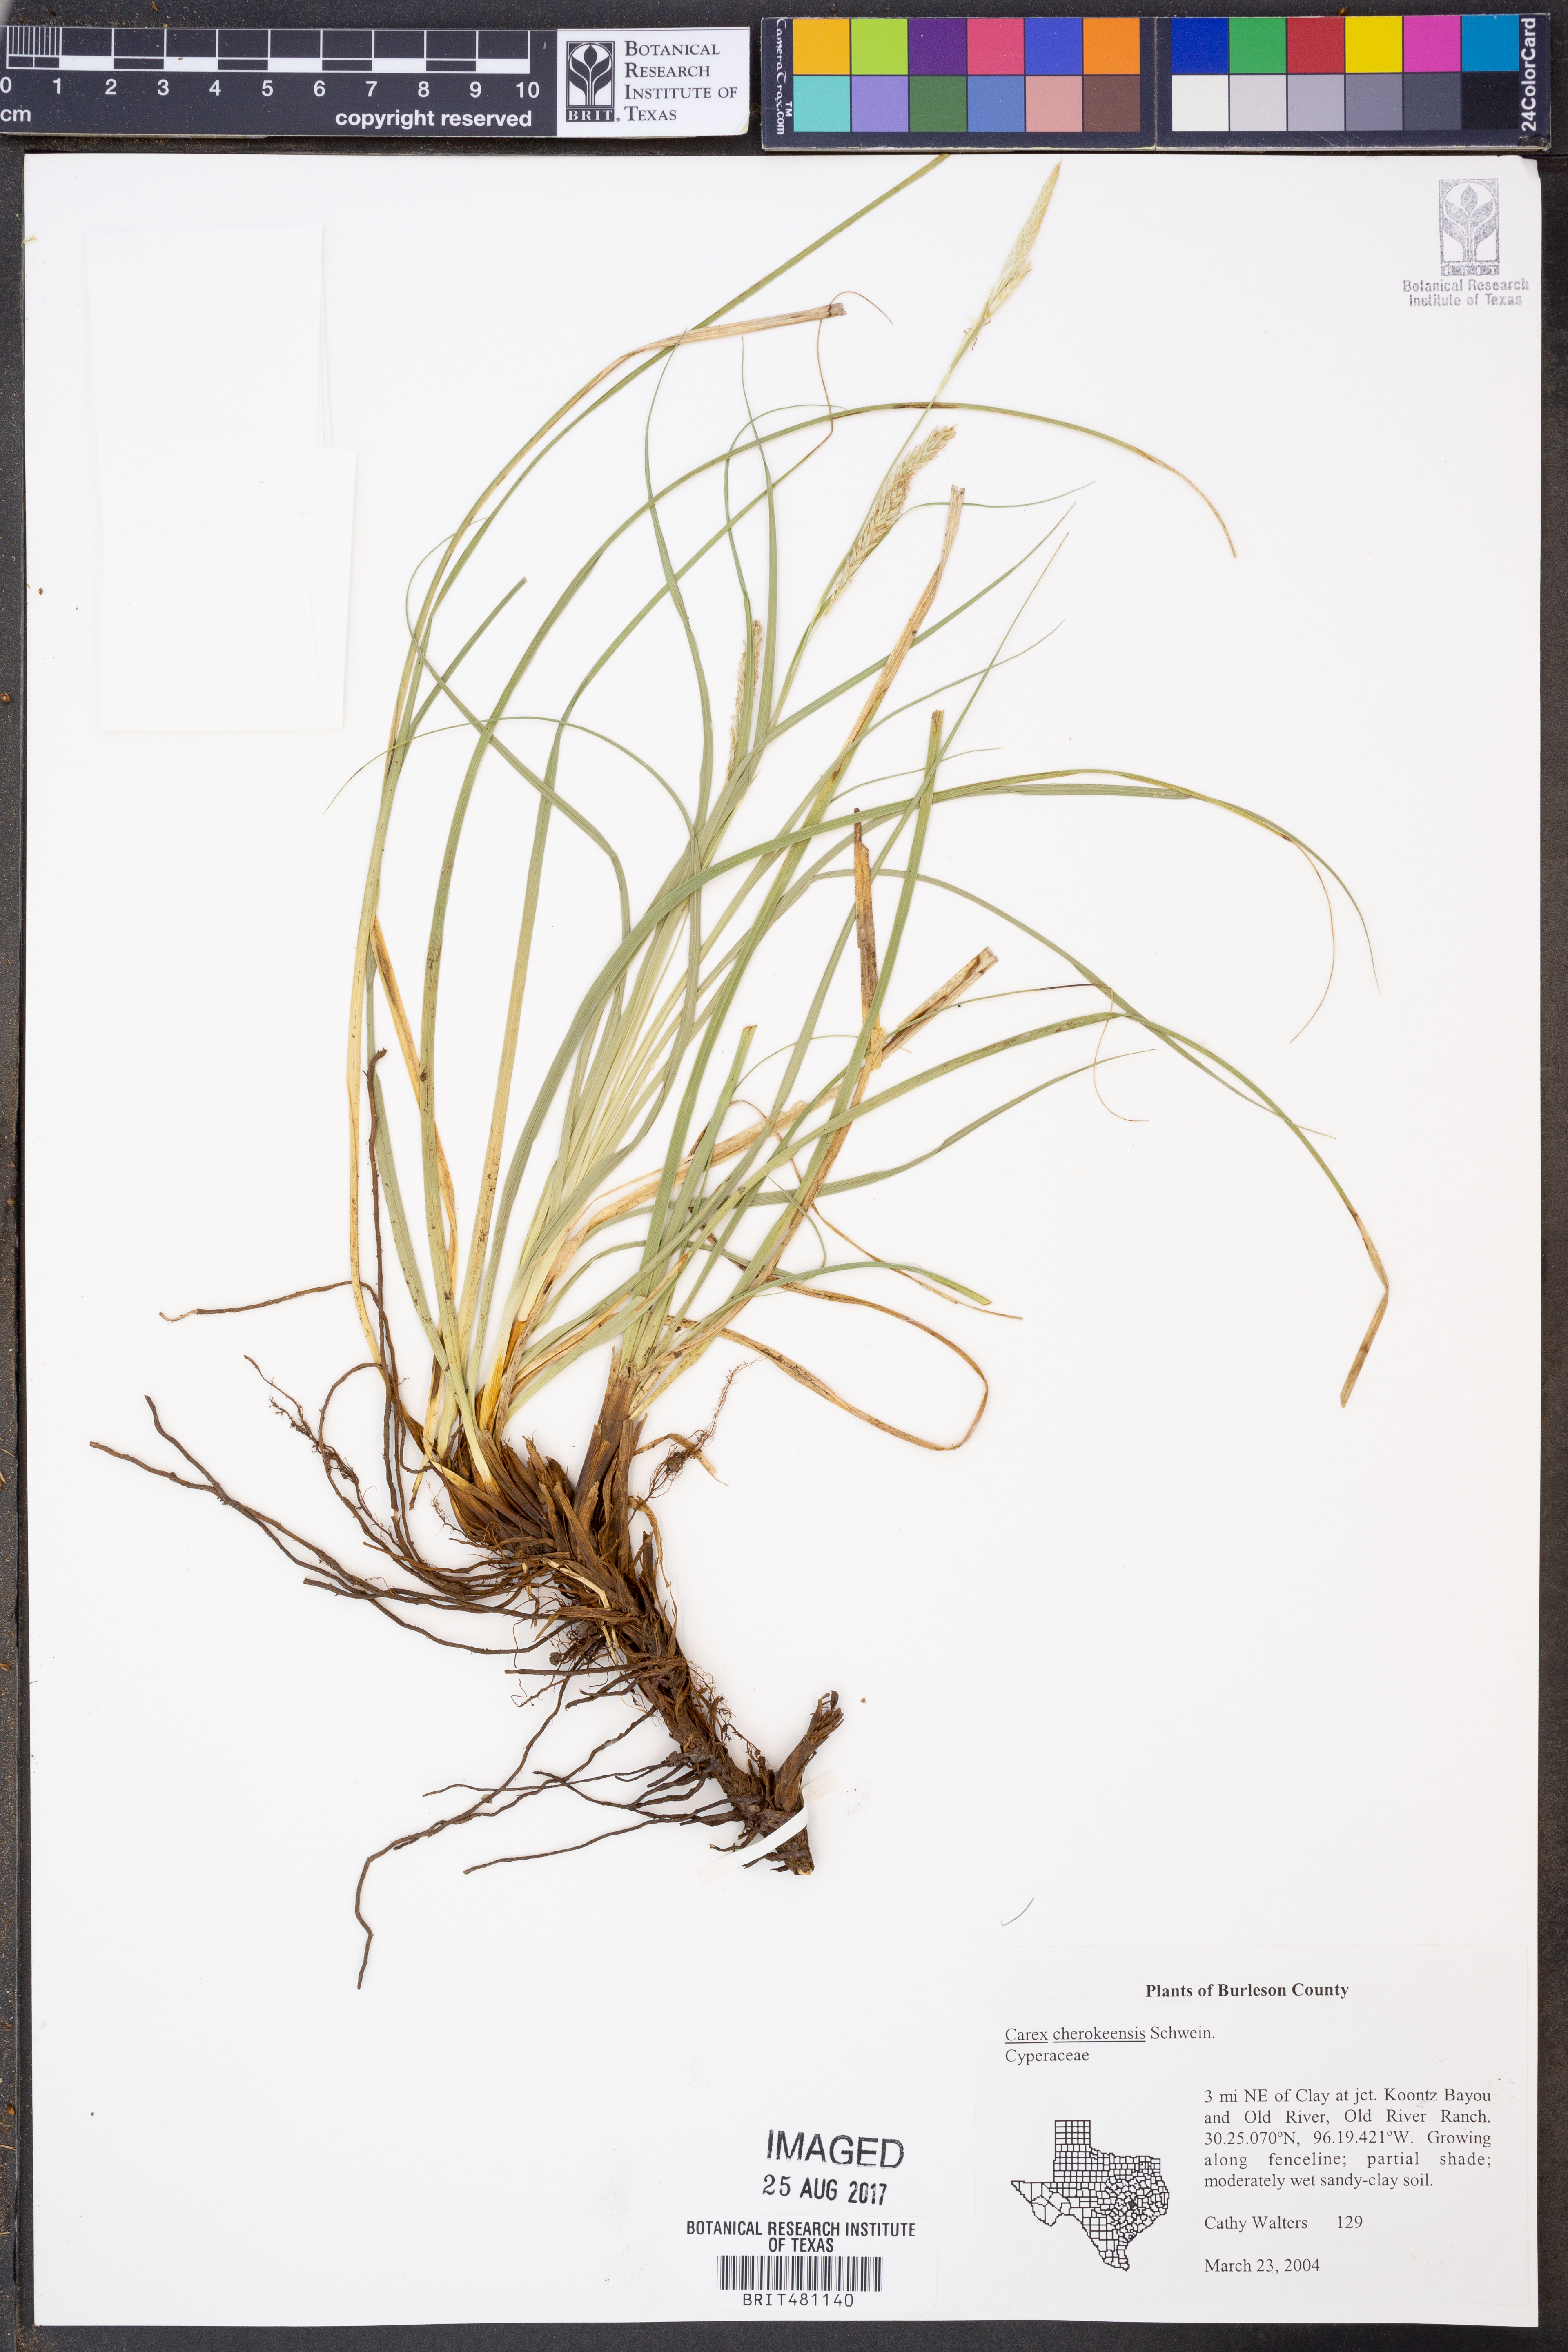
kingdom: Plantae
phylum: Tracheophyta
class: Liliopsida
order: Poales
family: Cyperaceae
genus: Carex
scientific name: Carex cherokeensis
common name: Cherokee sedge
